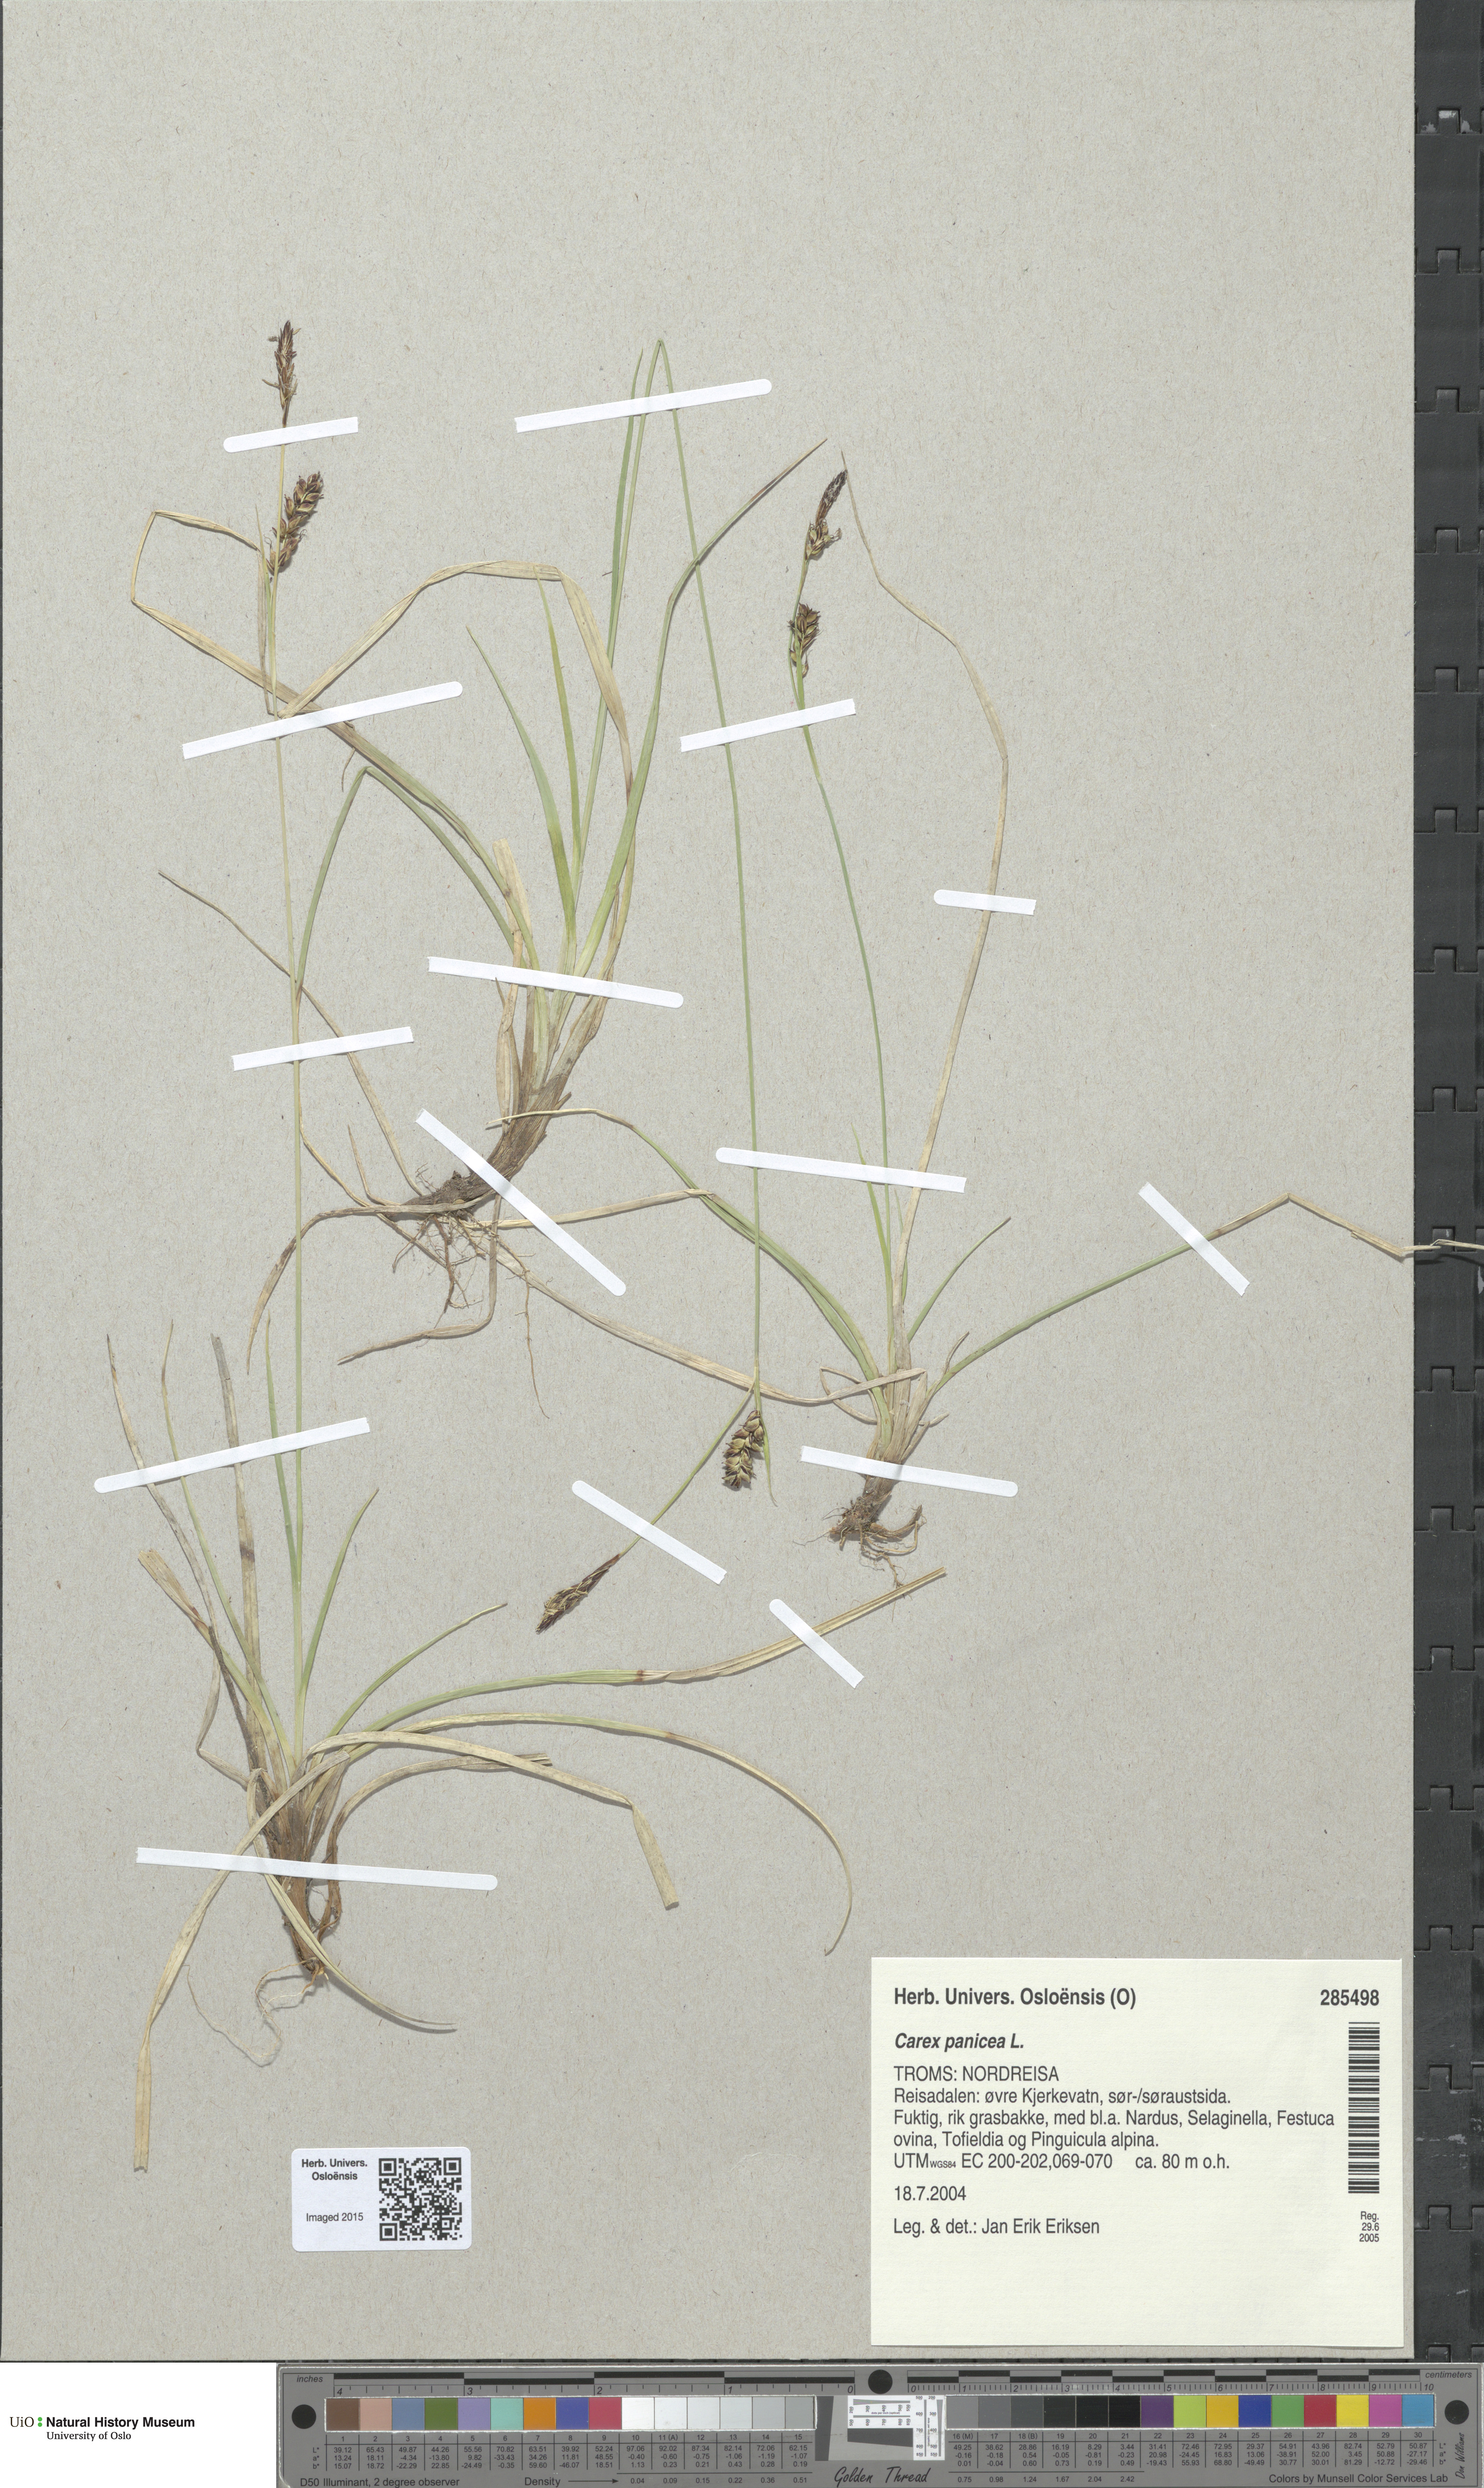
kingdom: Plantae
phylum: Tracheophyta
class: Liliopsida
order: Poales
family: Cyperaceae
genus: Carex
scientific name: Carex panicea
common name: Carnation sedge
